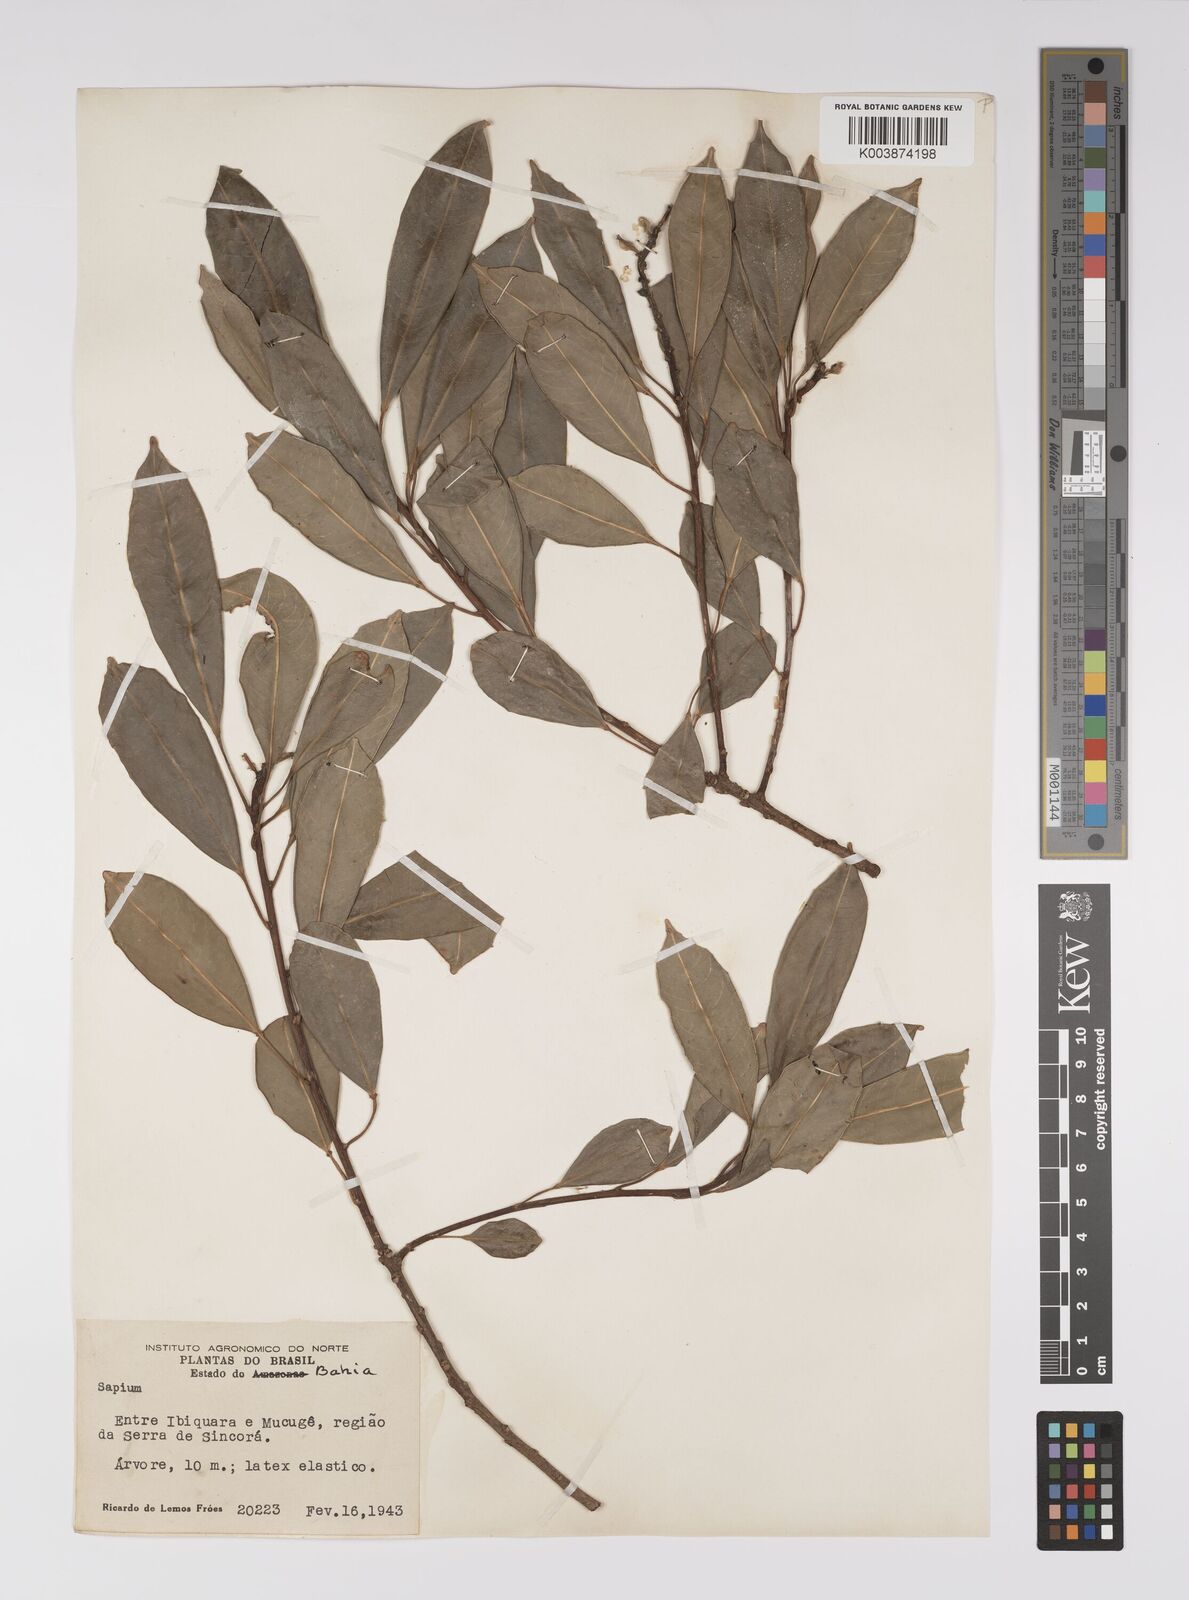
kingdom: Plantae
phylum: Tracheophyta
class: Magnoliopsida
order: Malpighiales
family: Euphorbiaceae
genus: Sapium
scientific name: Sapium
